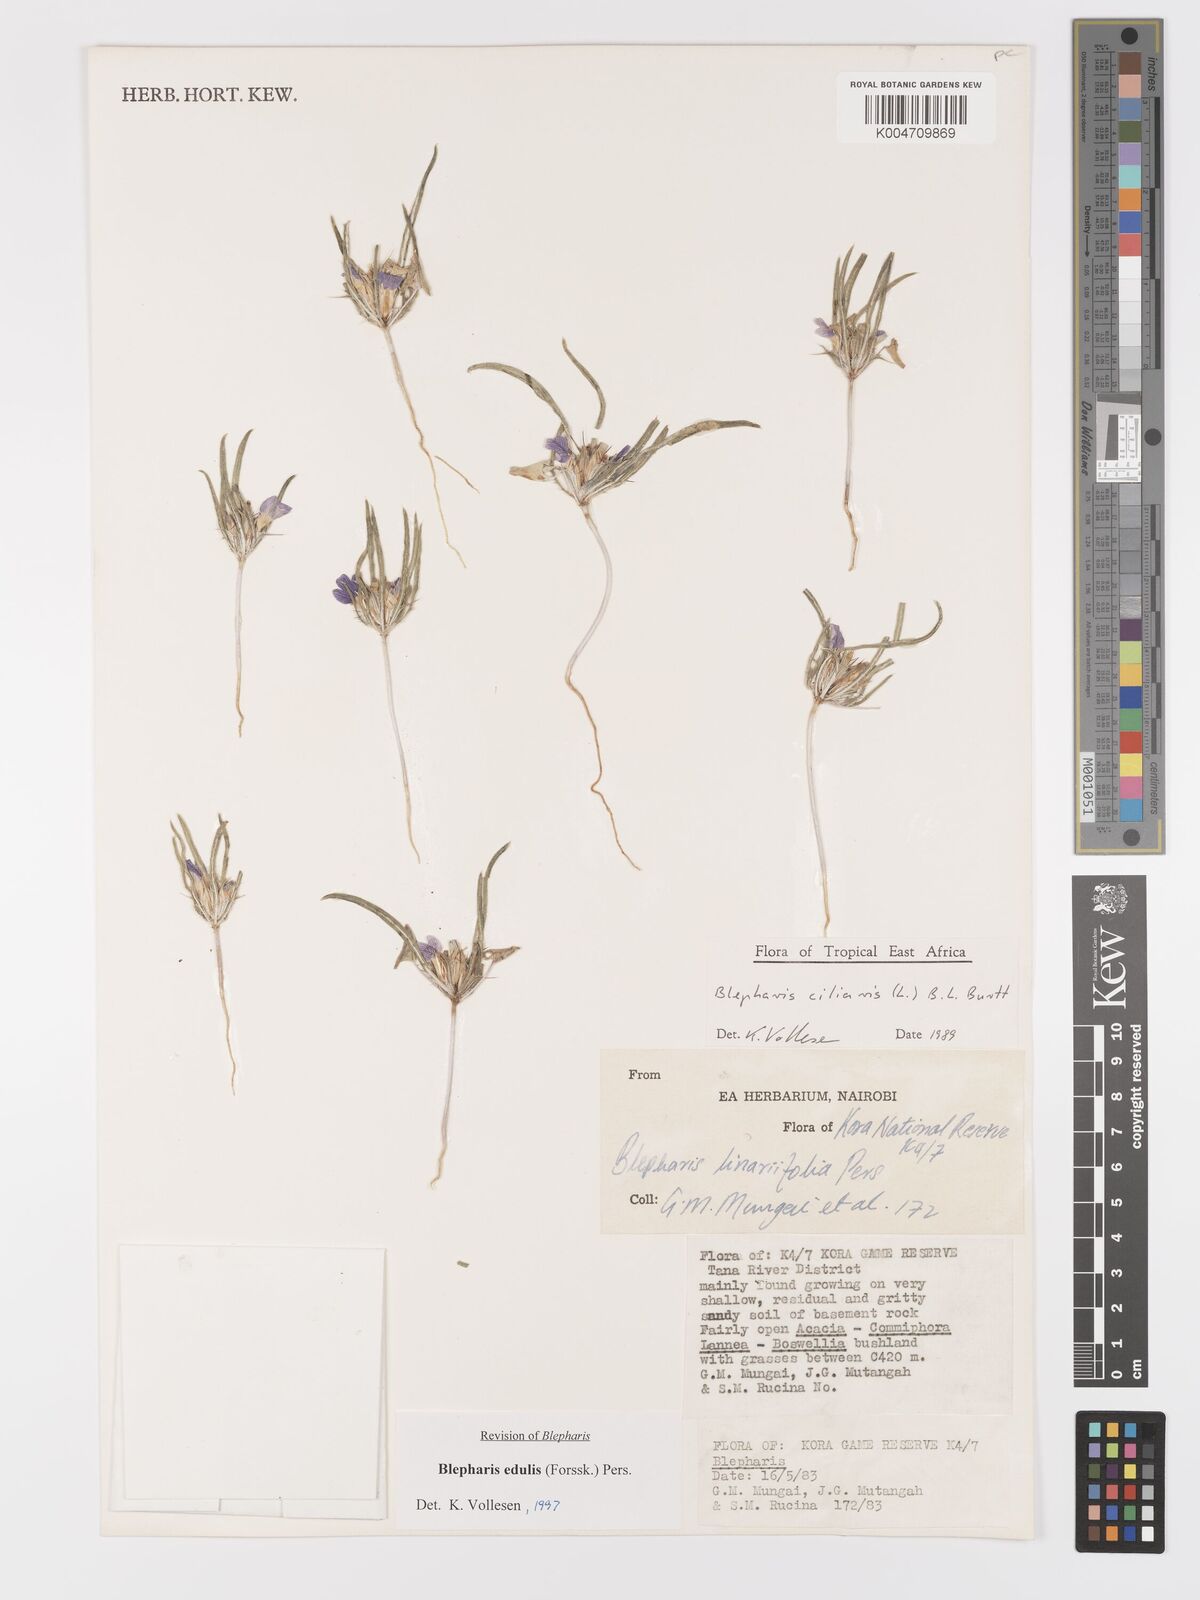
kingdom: Plantae
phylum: Tracheophyta
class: Magnoliopsida
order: Lamiales
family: Acanthaceae
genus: Blepharis
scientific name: Blepharis edulis
